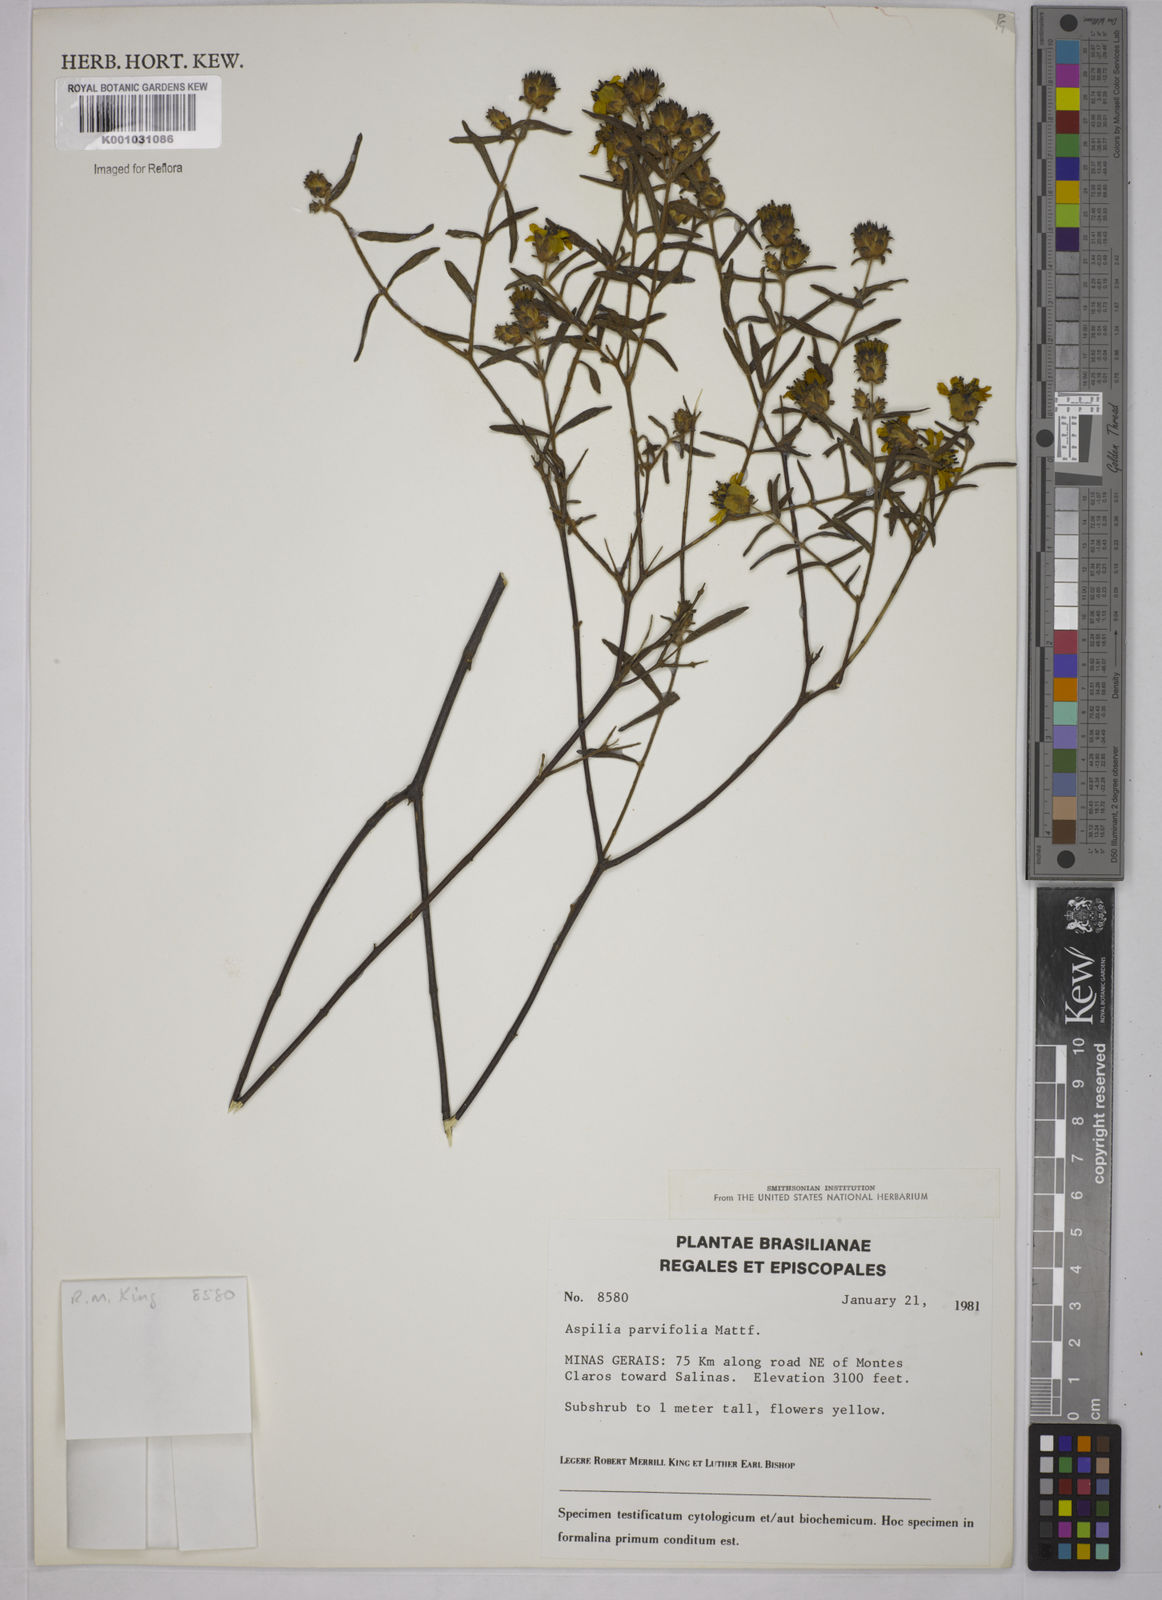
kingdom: Plantae
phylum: Tracheophyta
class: Magnoliopsida
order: Asterales
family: Asteraceae
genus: Aspilia
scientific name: Aspilia foliosa
